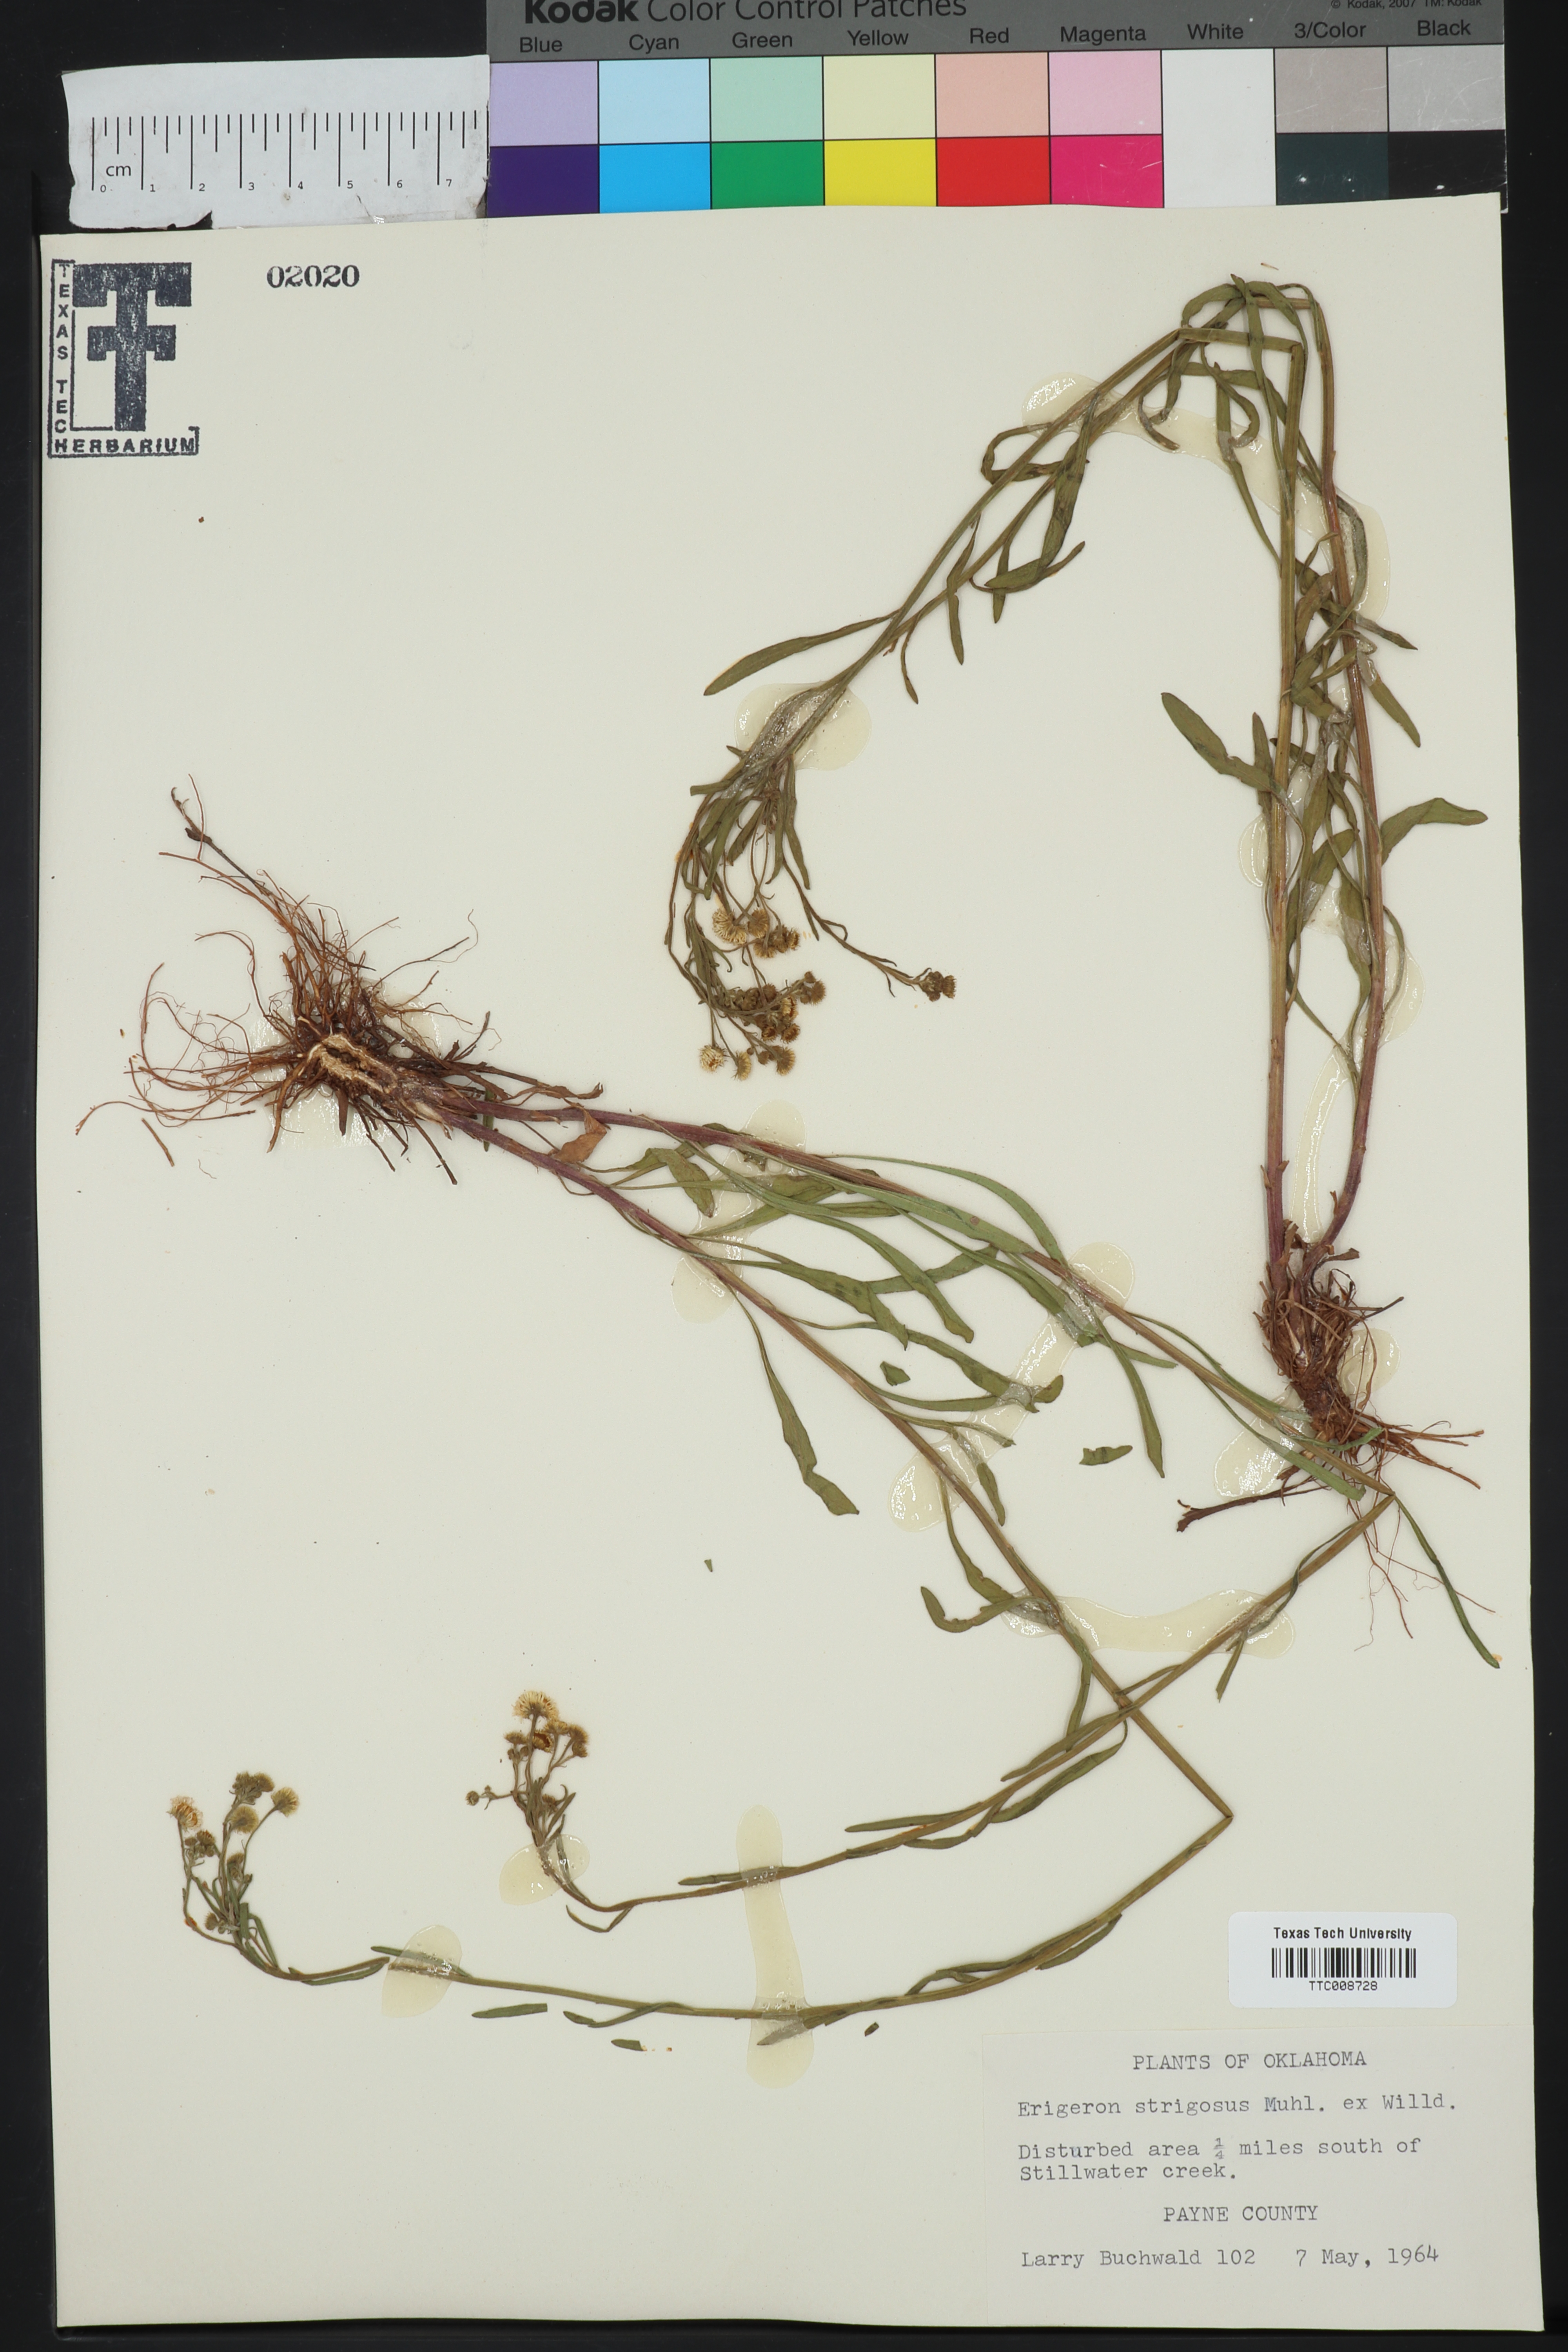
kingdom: Plantae
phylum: Tracheophyta
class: Magnoliopsida
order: Asterales
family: Asteraceae
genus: Erigeron
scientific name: Erigeron strigosus
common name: Common eastern fleabane
